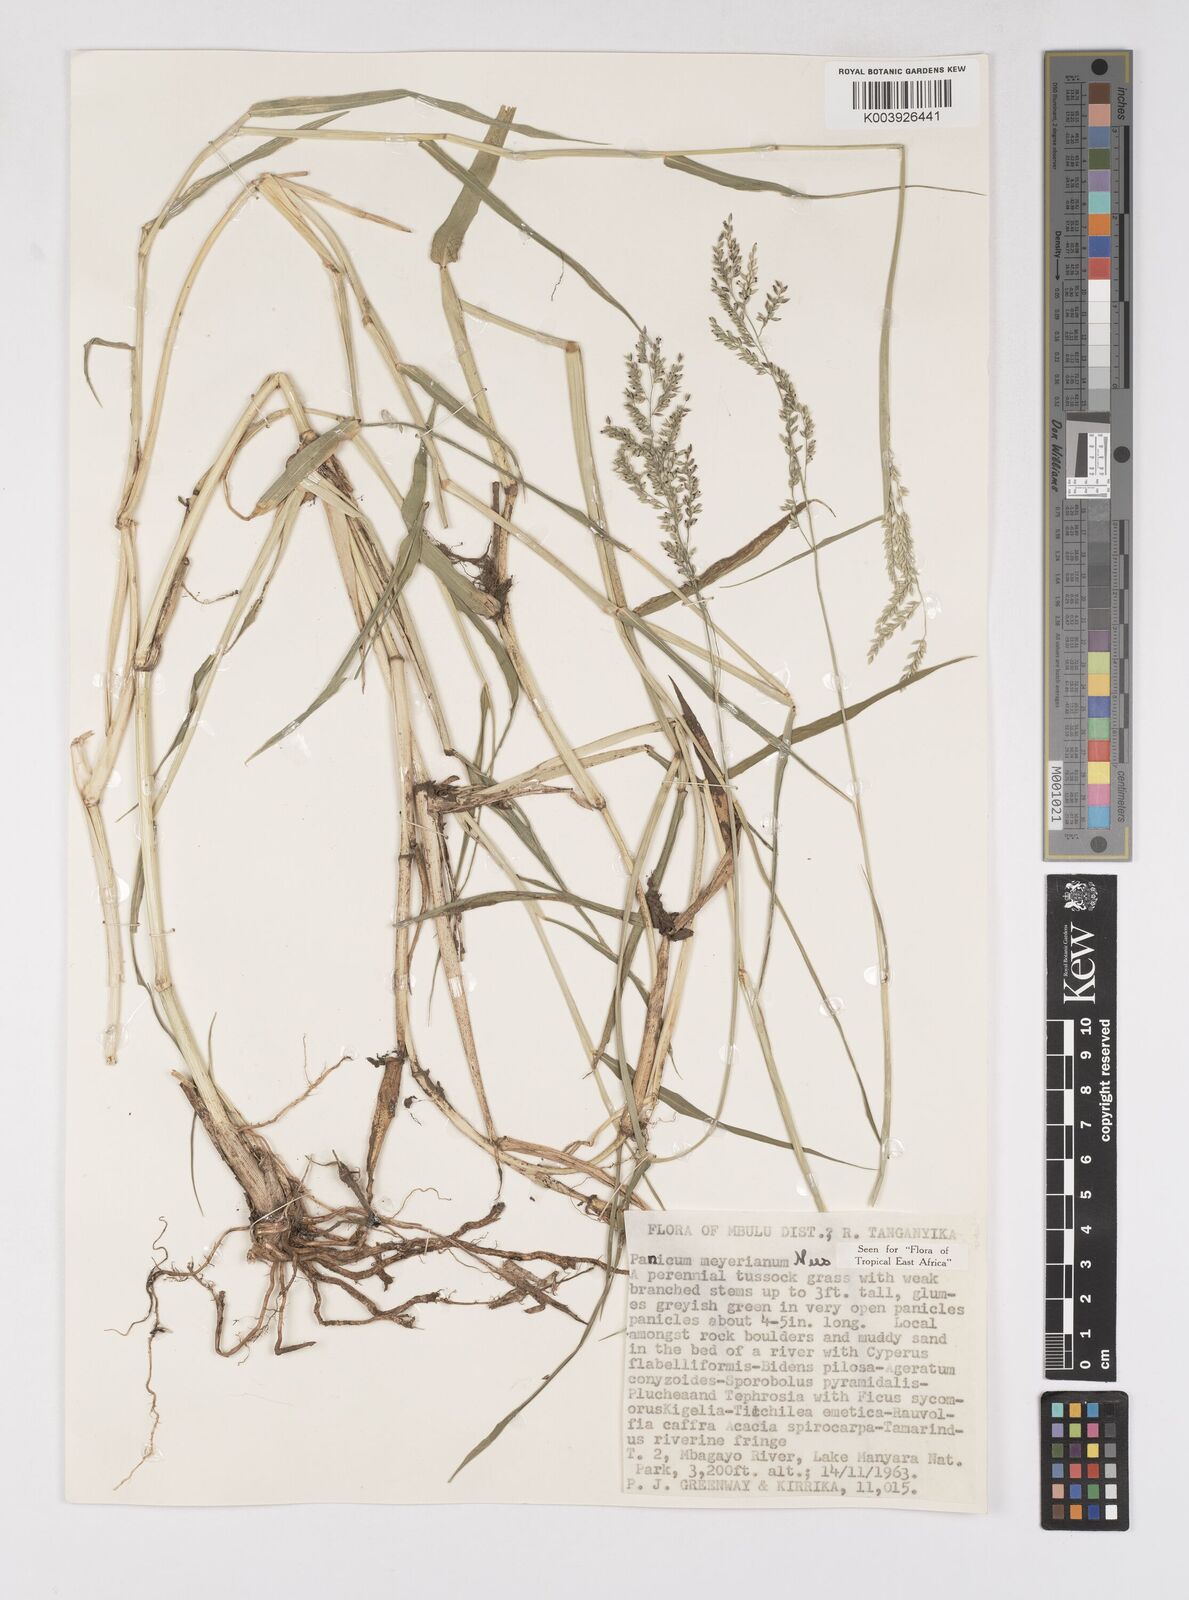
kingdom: Plantae
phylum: Tracheophyta
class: Liliopsida
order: Poales
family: Poaceae
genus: Eriochloa
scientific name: Eriochloa meyeriana
